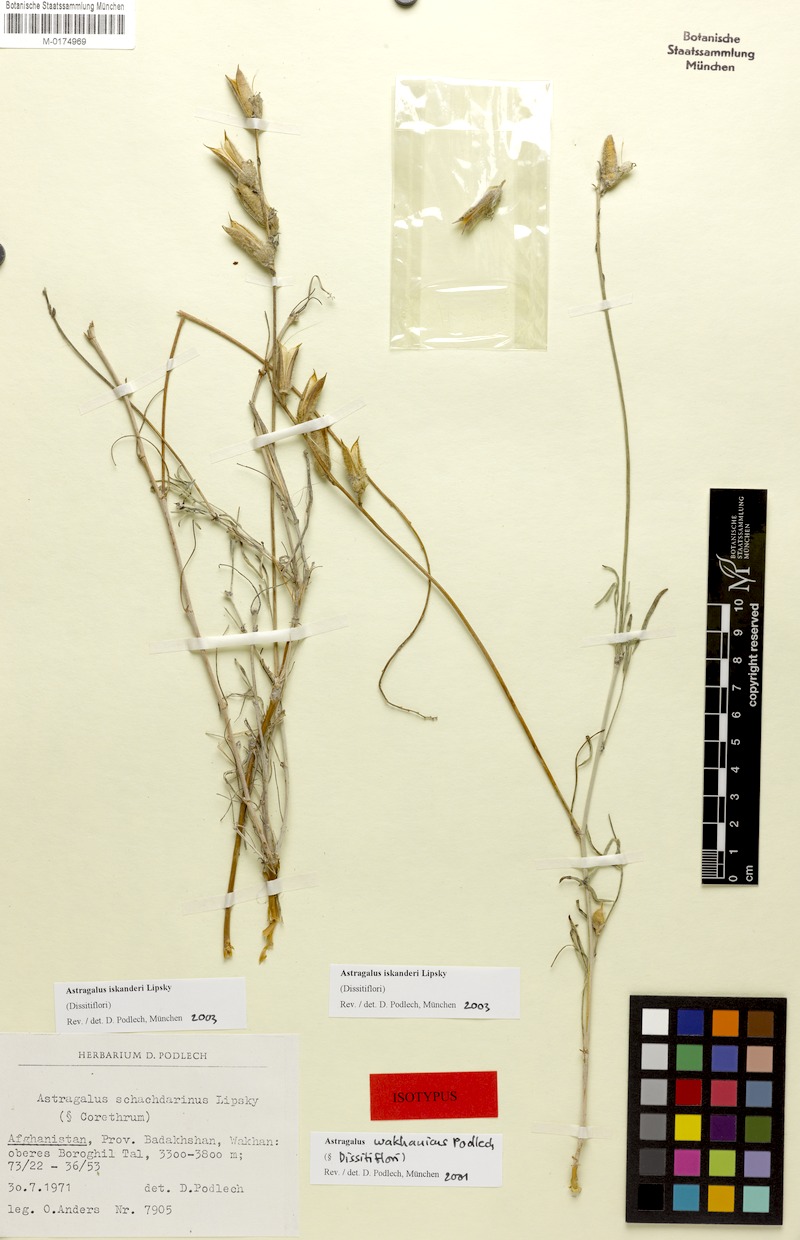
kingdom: Plantae
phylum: Tracheophyta
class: Magnoliopsida
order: Fabales
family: Fabaceae
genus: Astragalus
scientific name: Astragalus iskanderi
